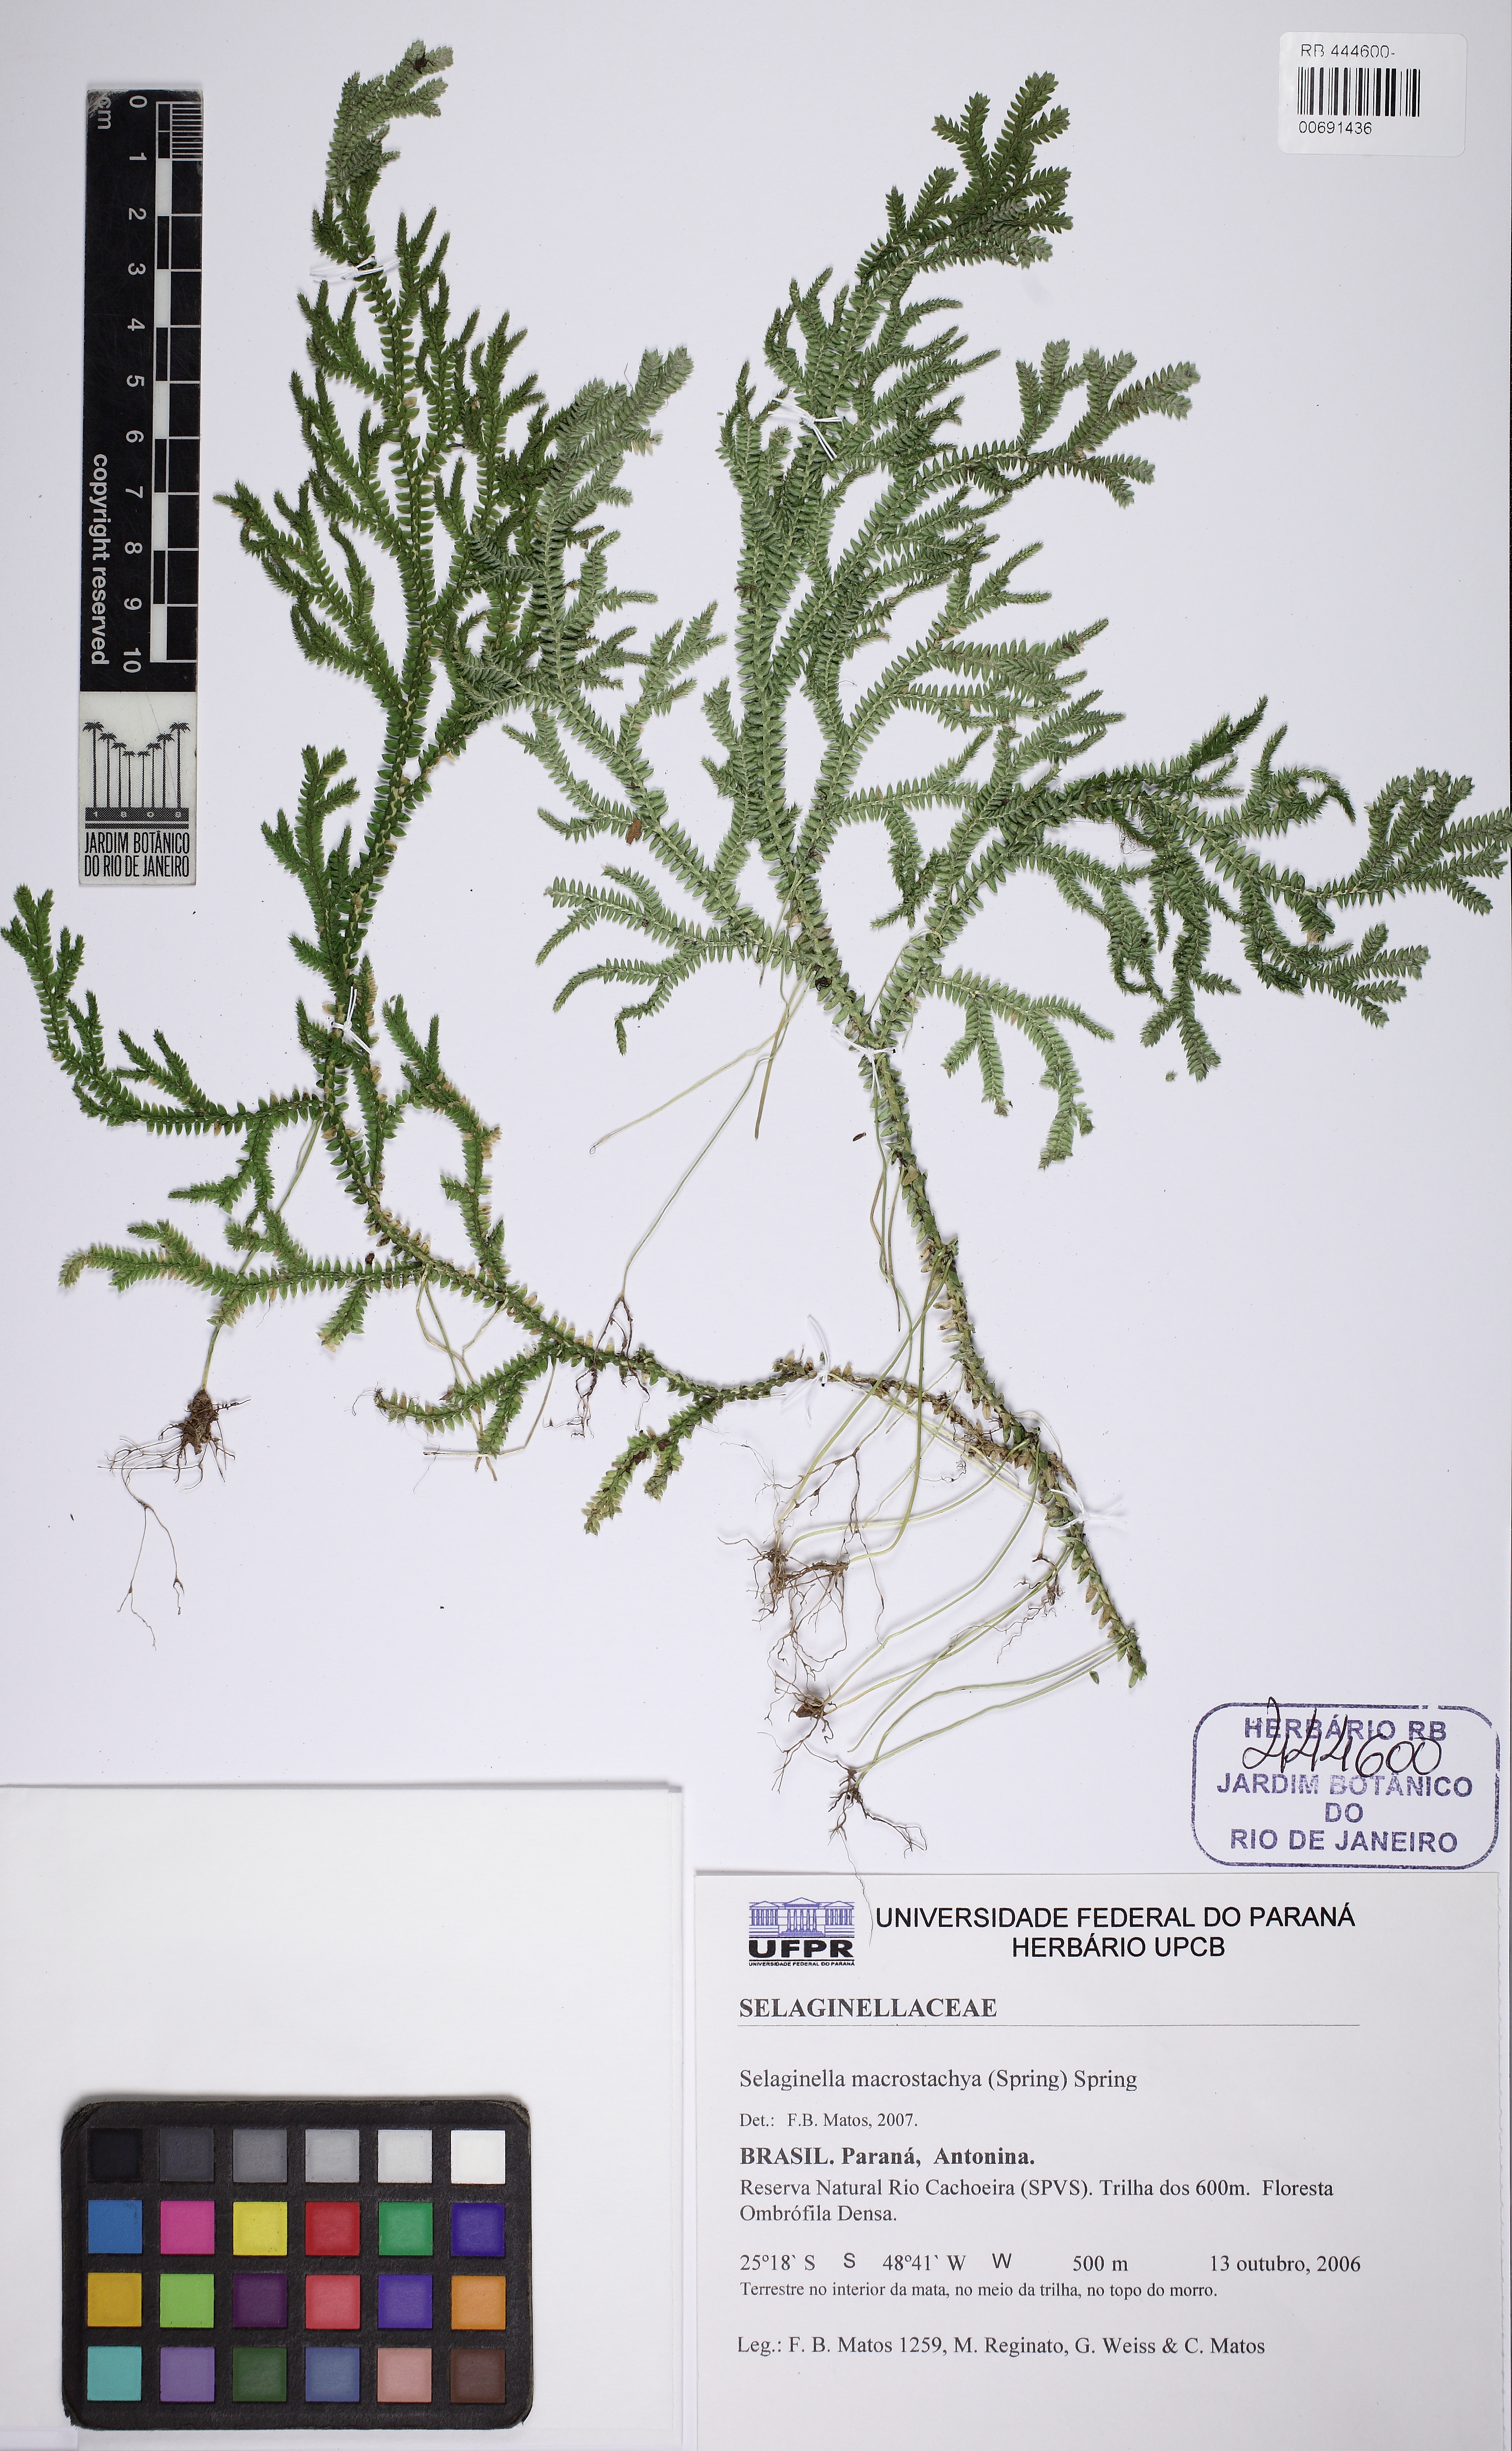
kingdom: Plantae
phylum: Tracheophyta
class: Lycopodiopsida
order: Selaginellales
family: Selaginellaceae
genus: Selaginella
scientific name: Selaginella macrostachya
